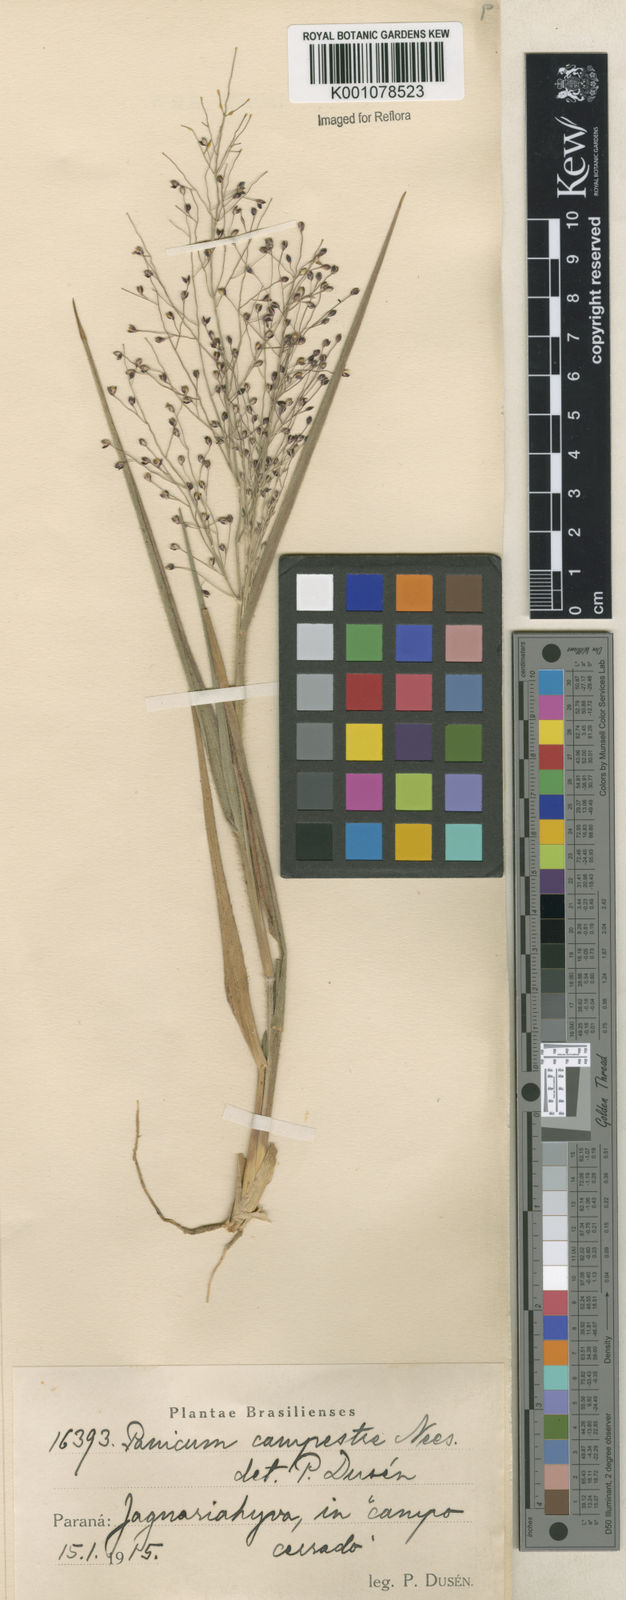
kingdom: Plantae
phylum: Tracheophyta
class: Liliopsida
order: Poales
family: Poaceae
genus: Panicum
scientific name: Panicum campestre
